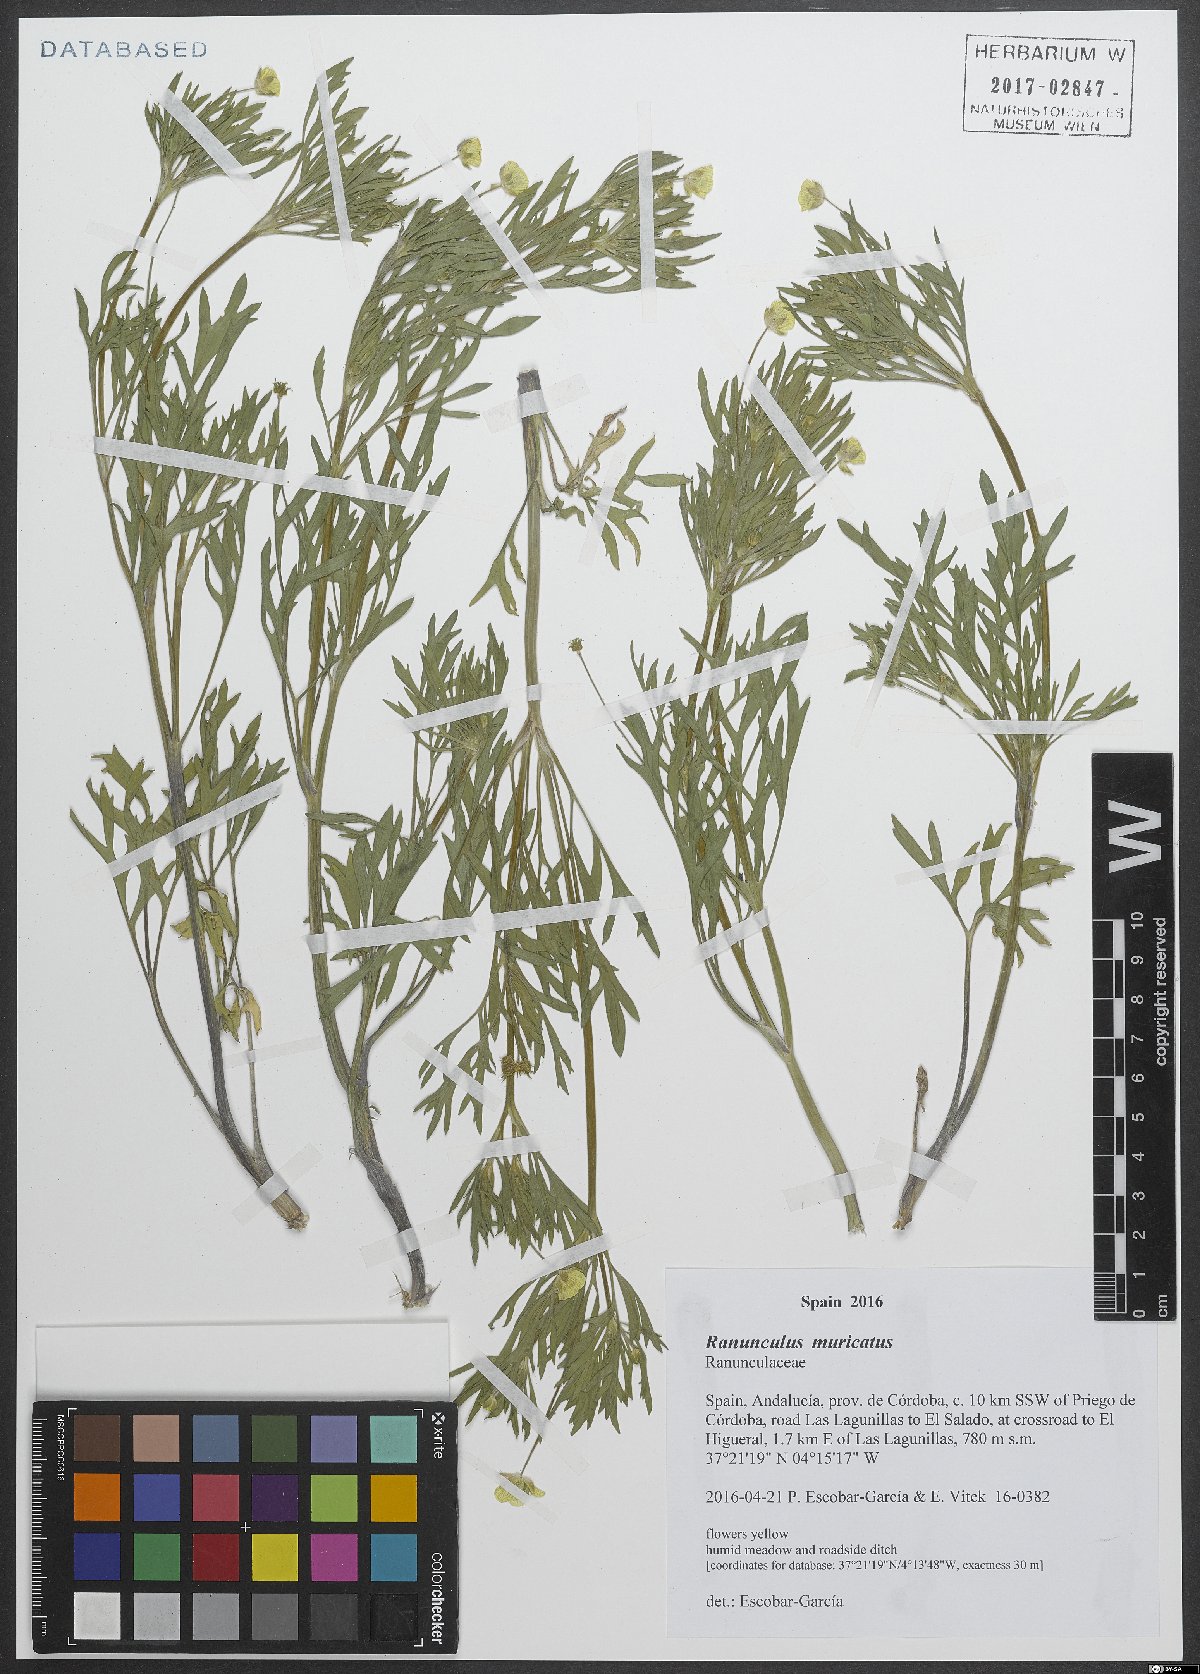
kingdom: Plantae
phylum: Tracheophyta
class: Magnoliopsida
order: Ranunculales
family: Ranunculaceae
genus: Ranunculus
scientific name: Ranunculus muricatus
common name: Rough-fruited buttercup
